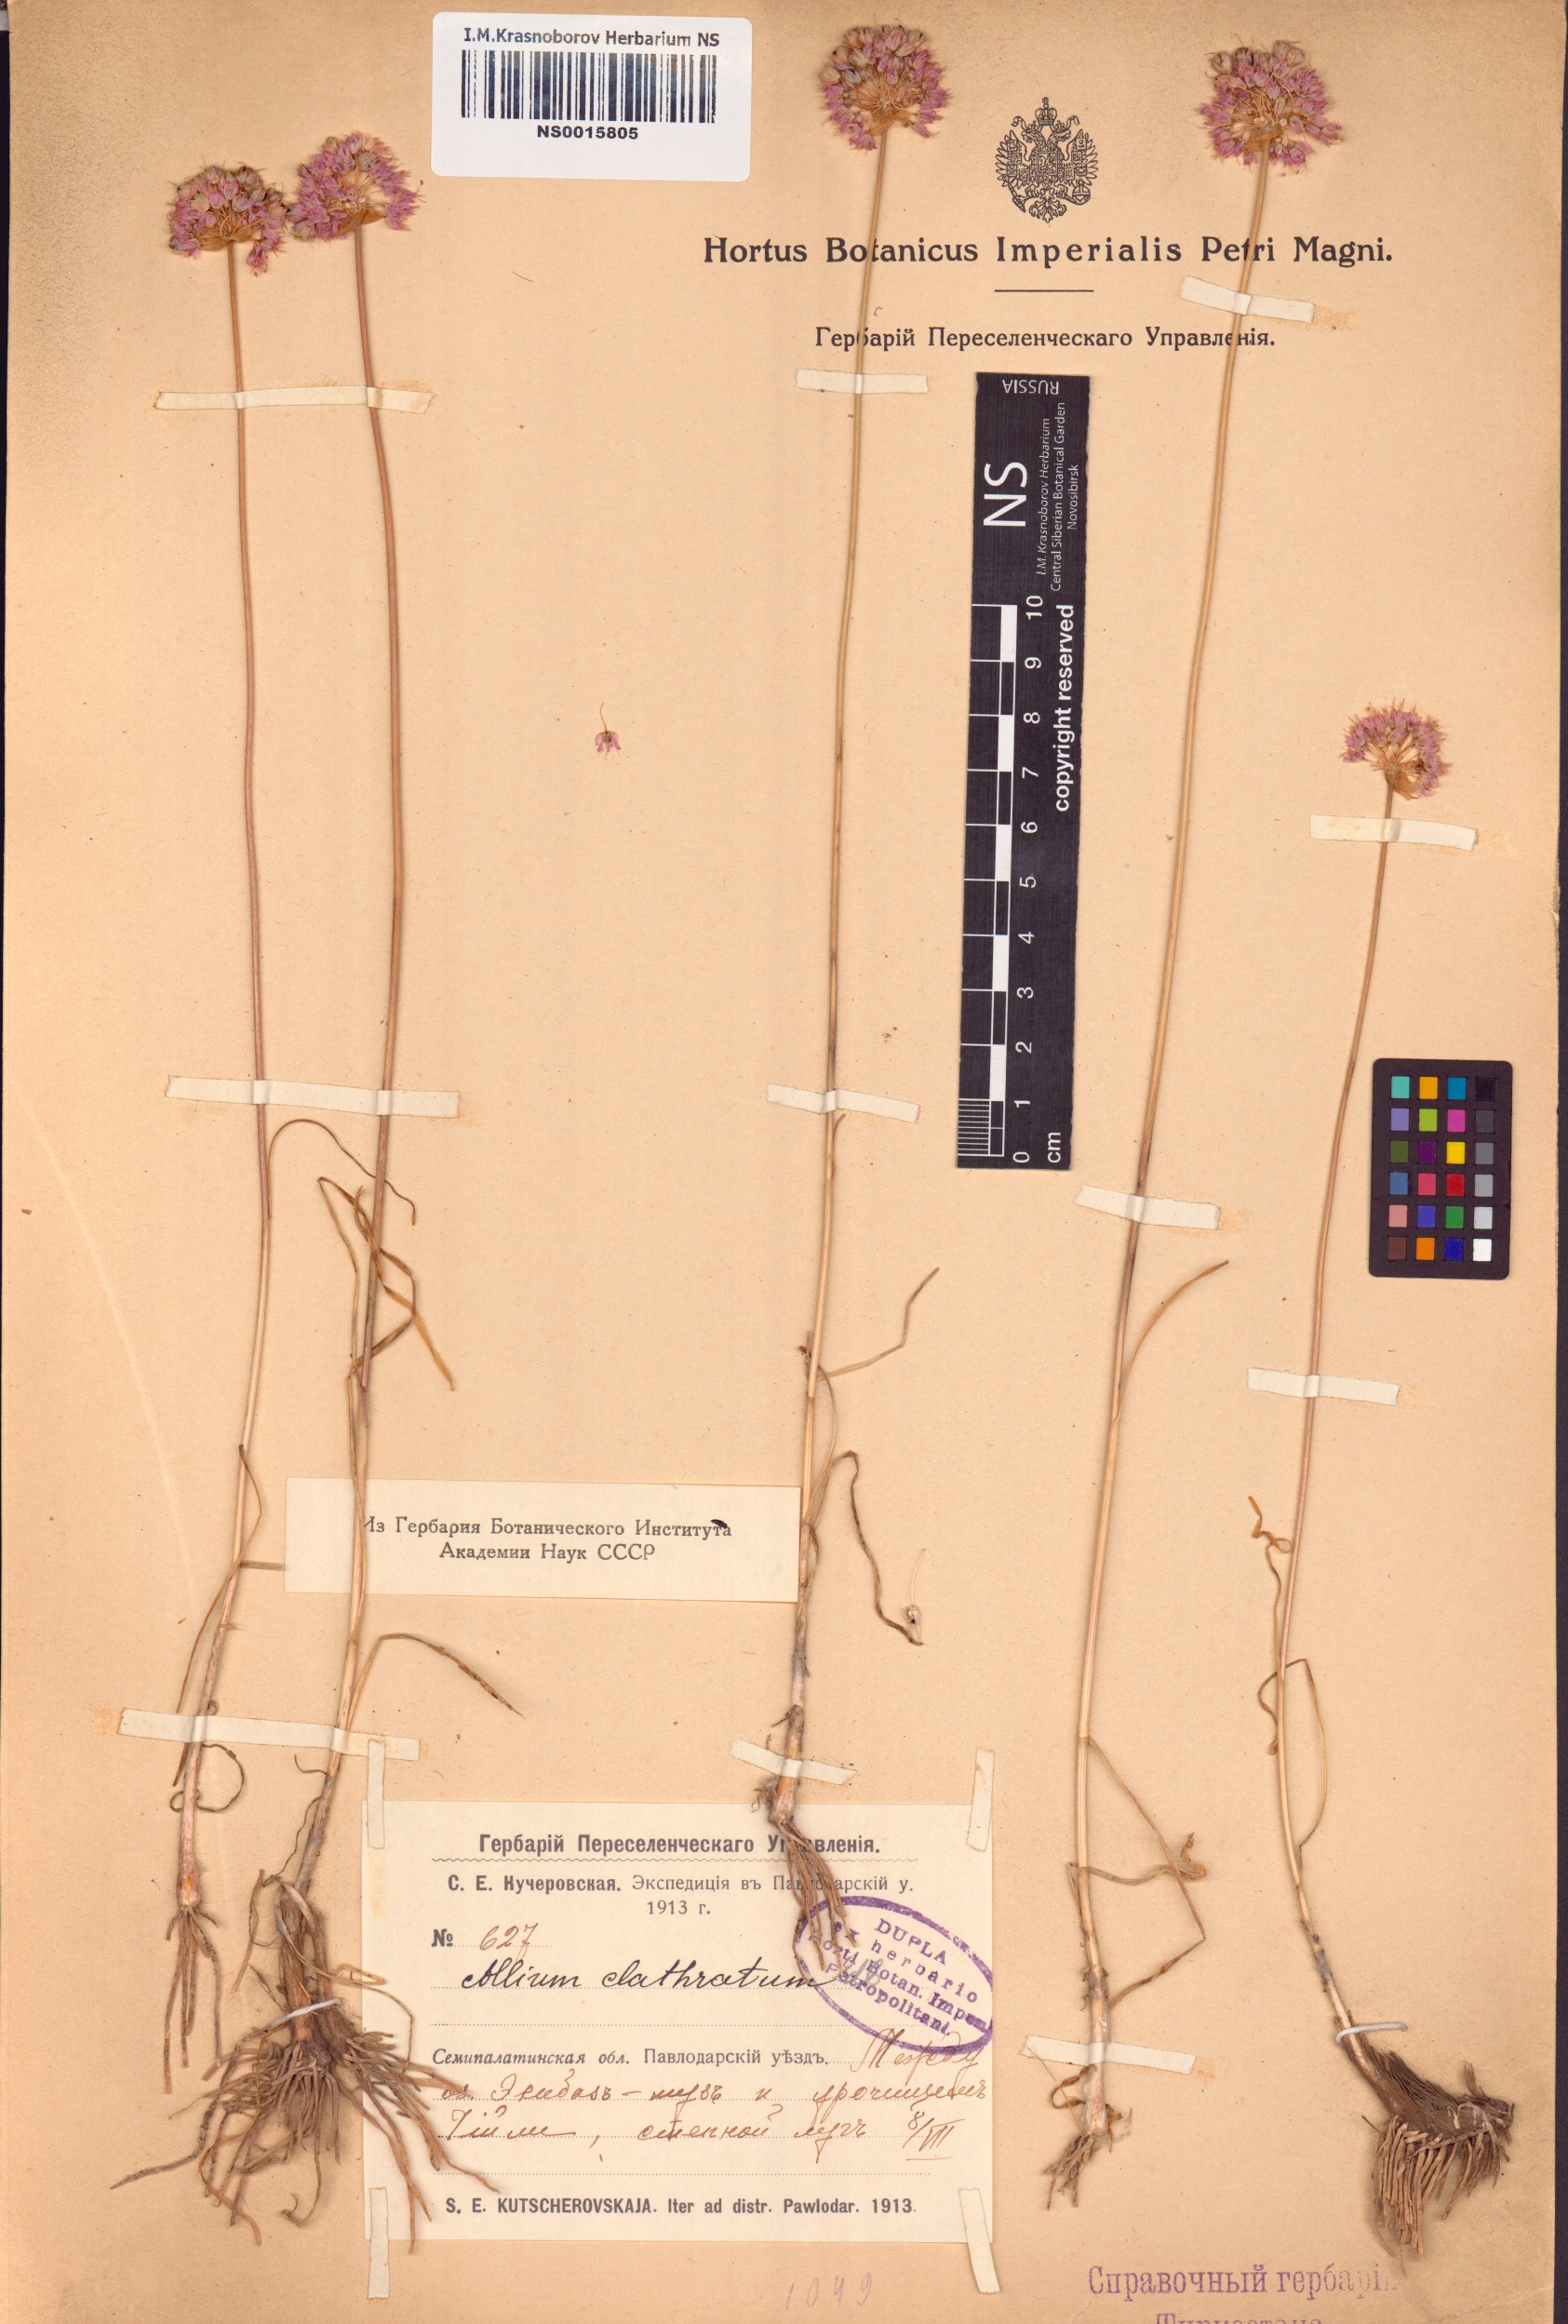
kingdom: Plantae
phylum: Tracheophyta
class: Liliopsida
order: Asparagales
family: Amaryllidaceae
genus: Allium
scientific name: Allium clathratum
